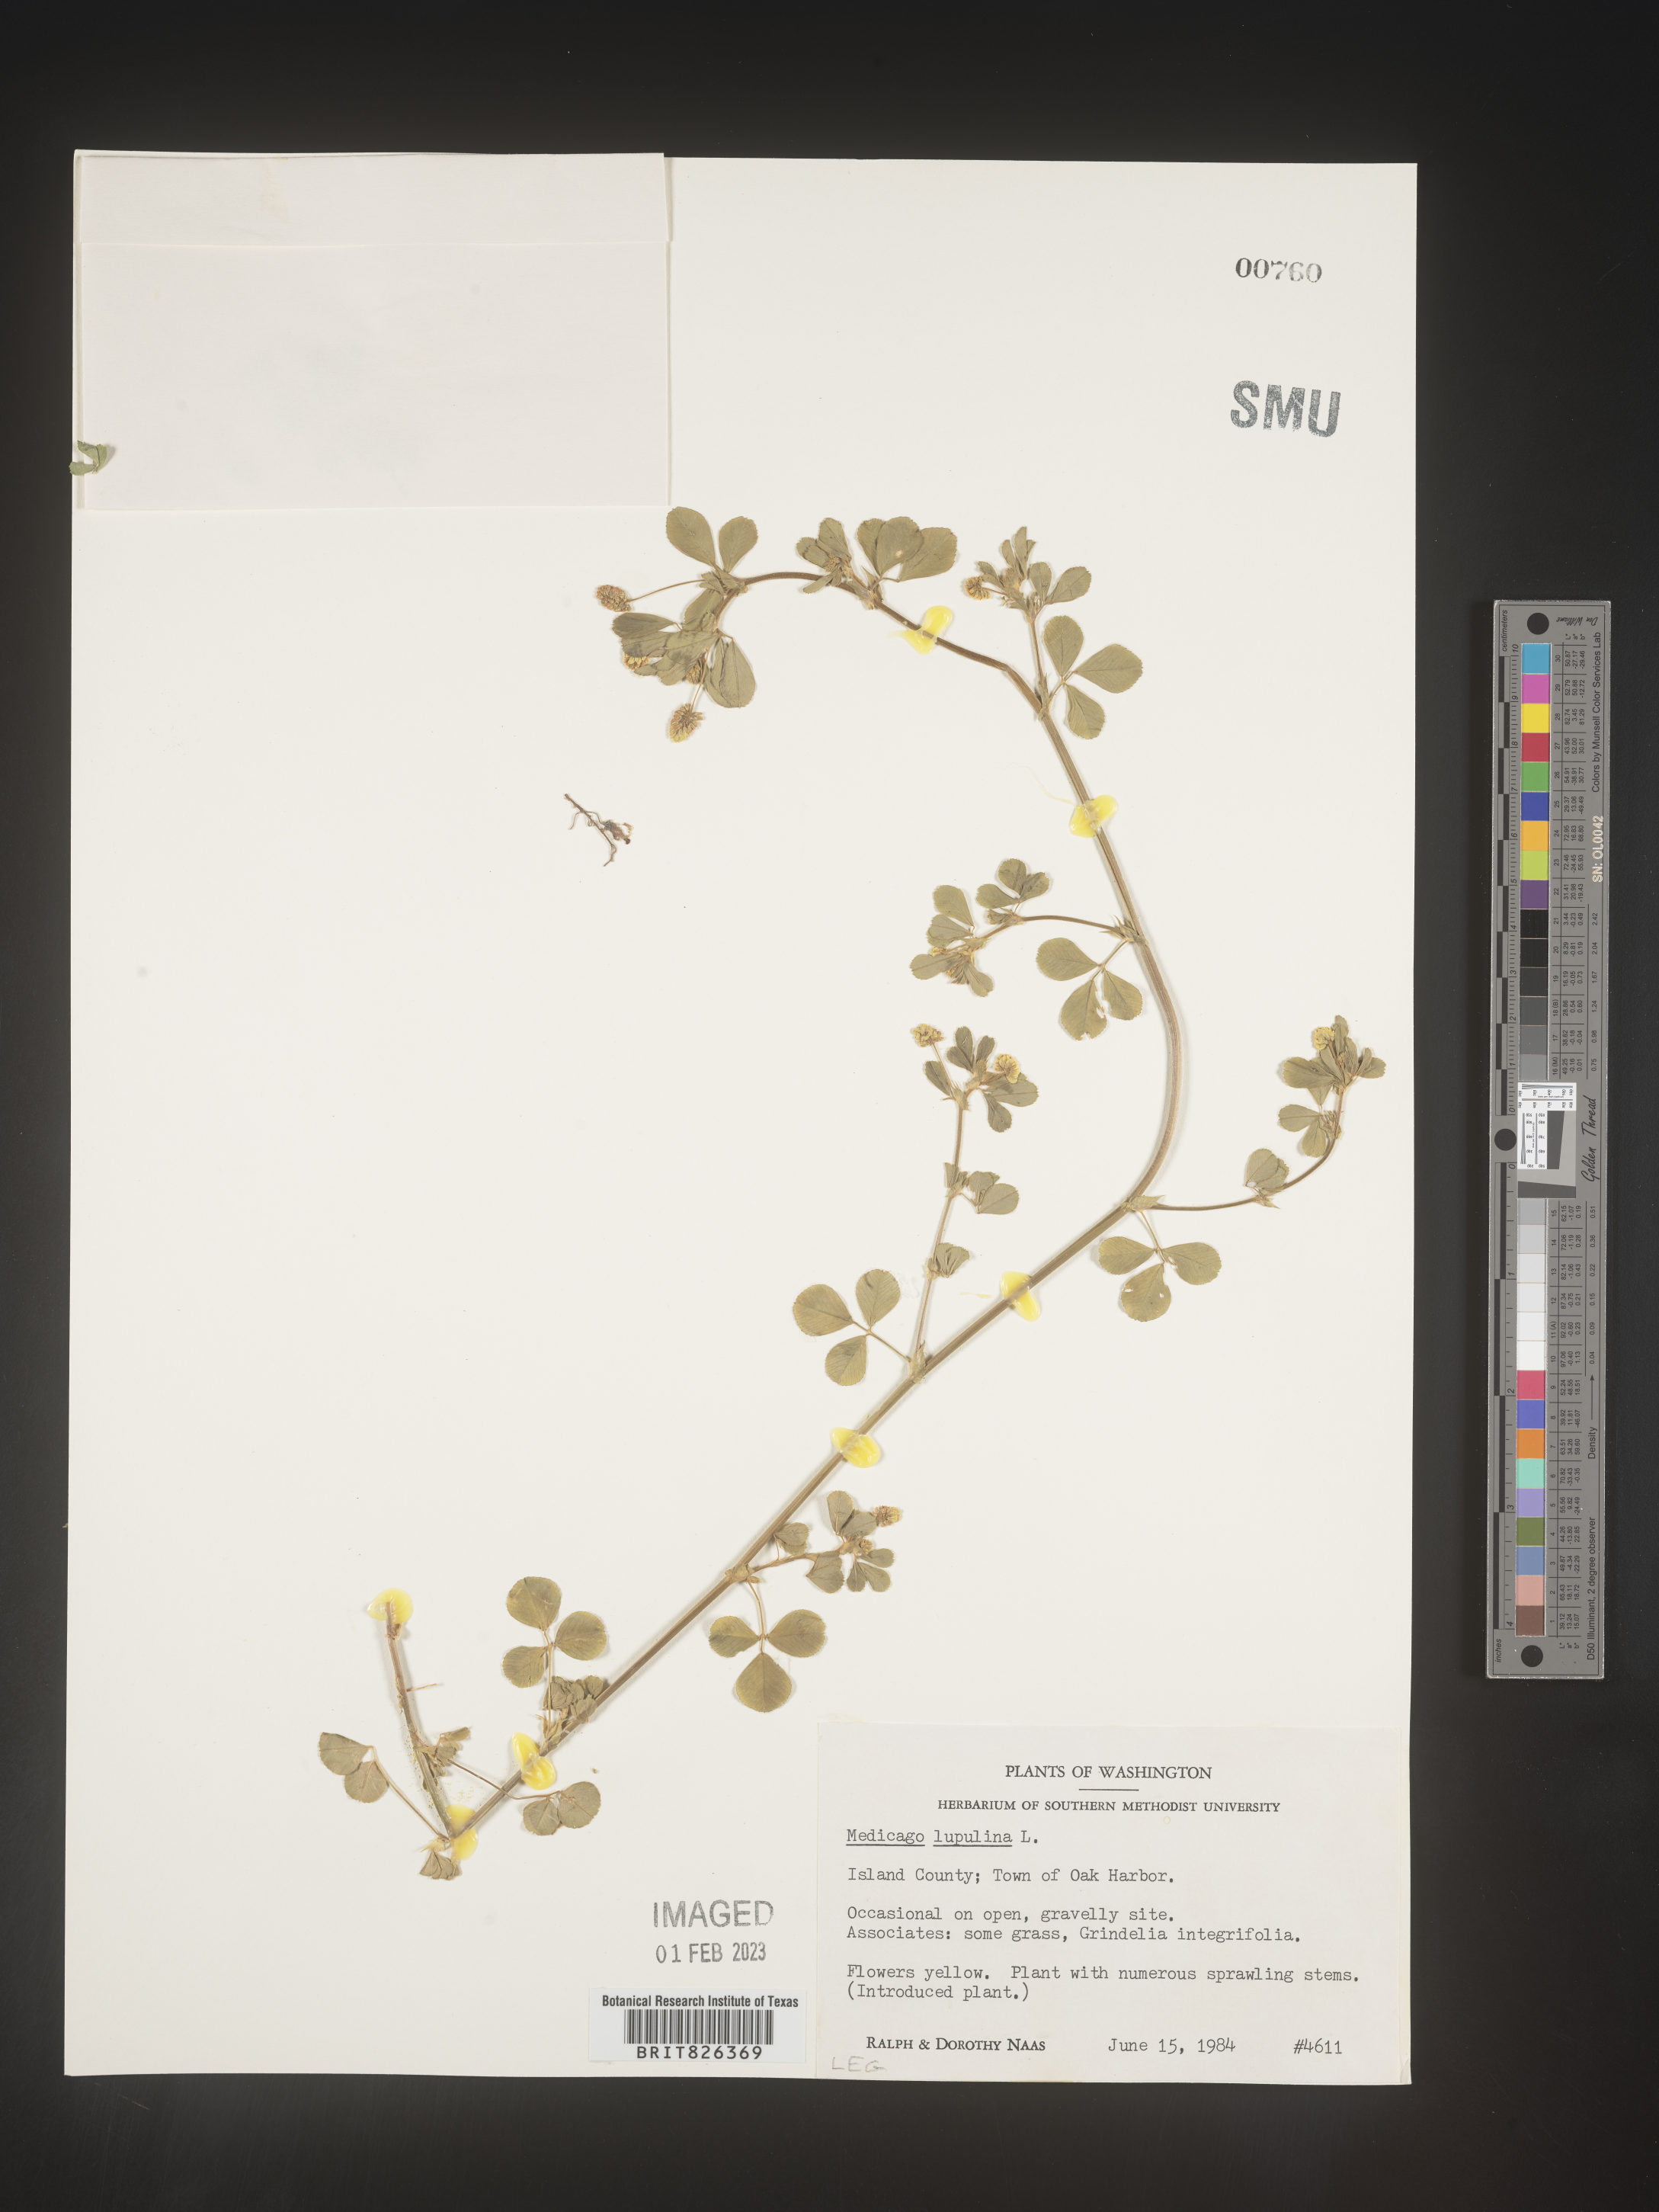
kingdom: Plantae
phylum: Tracheophyta
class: Magnoliopsida
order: Fabales
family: Fabaceae
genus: Medicago
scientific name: Medicago lupulina
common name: Black medick
